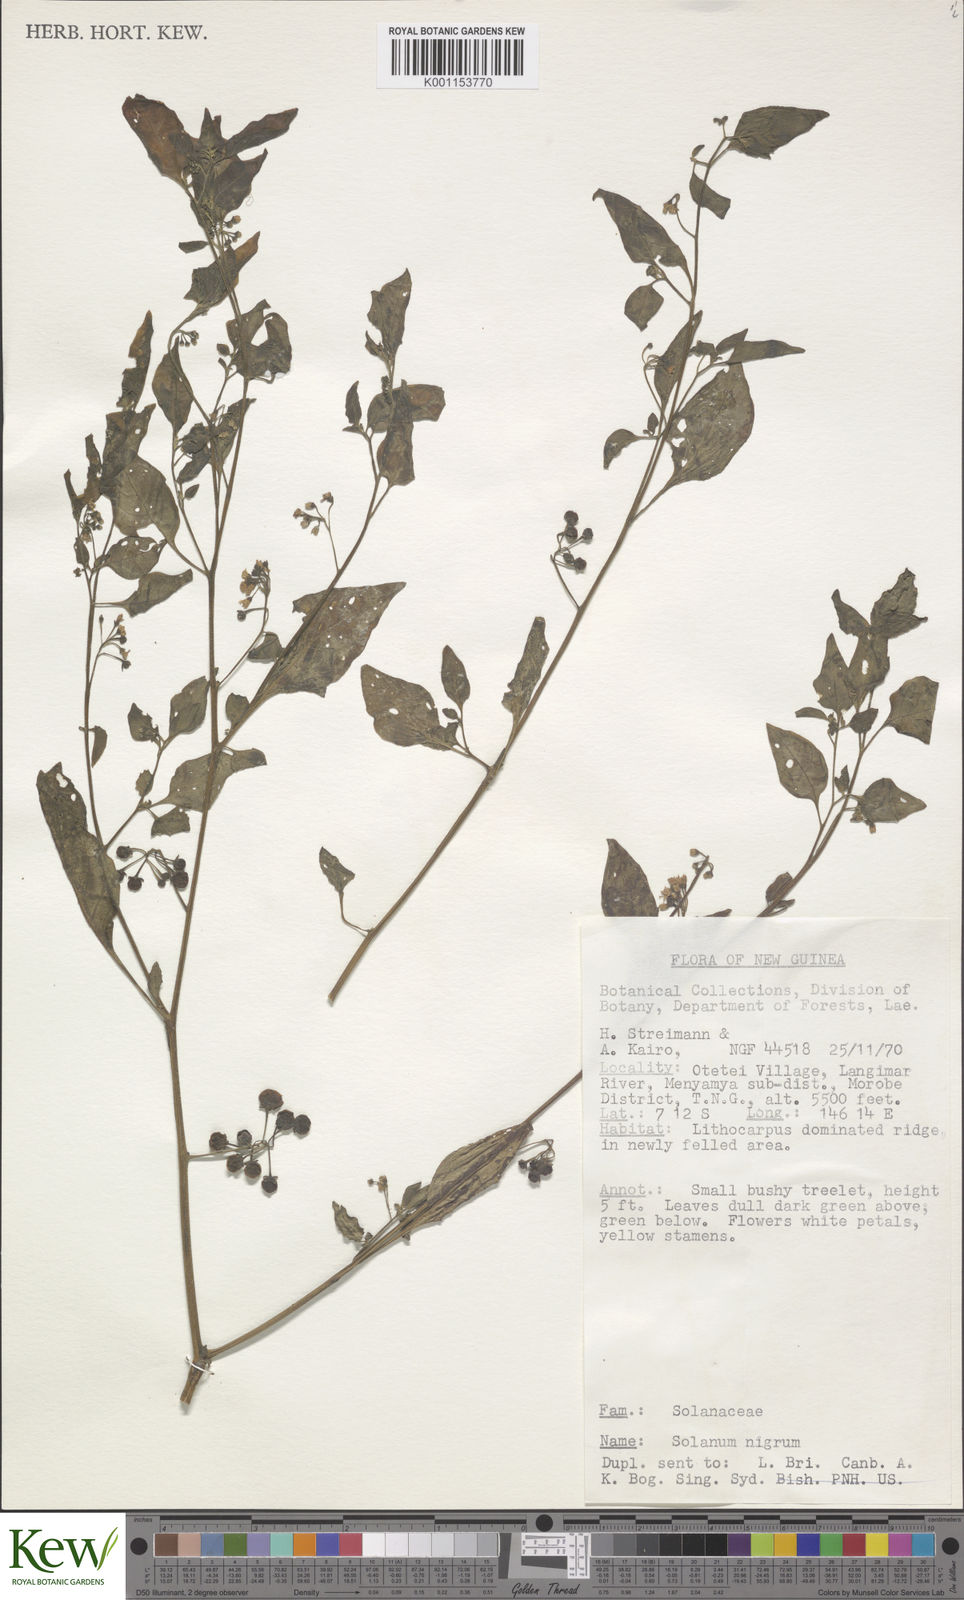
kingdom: Plantae
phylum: Tracheophyta
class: Magnoliopsida
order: Solanales
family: Solanaceae
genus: Solanum
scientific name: Solanum nigrum
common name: Black nightshade
